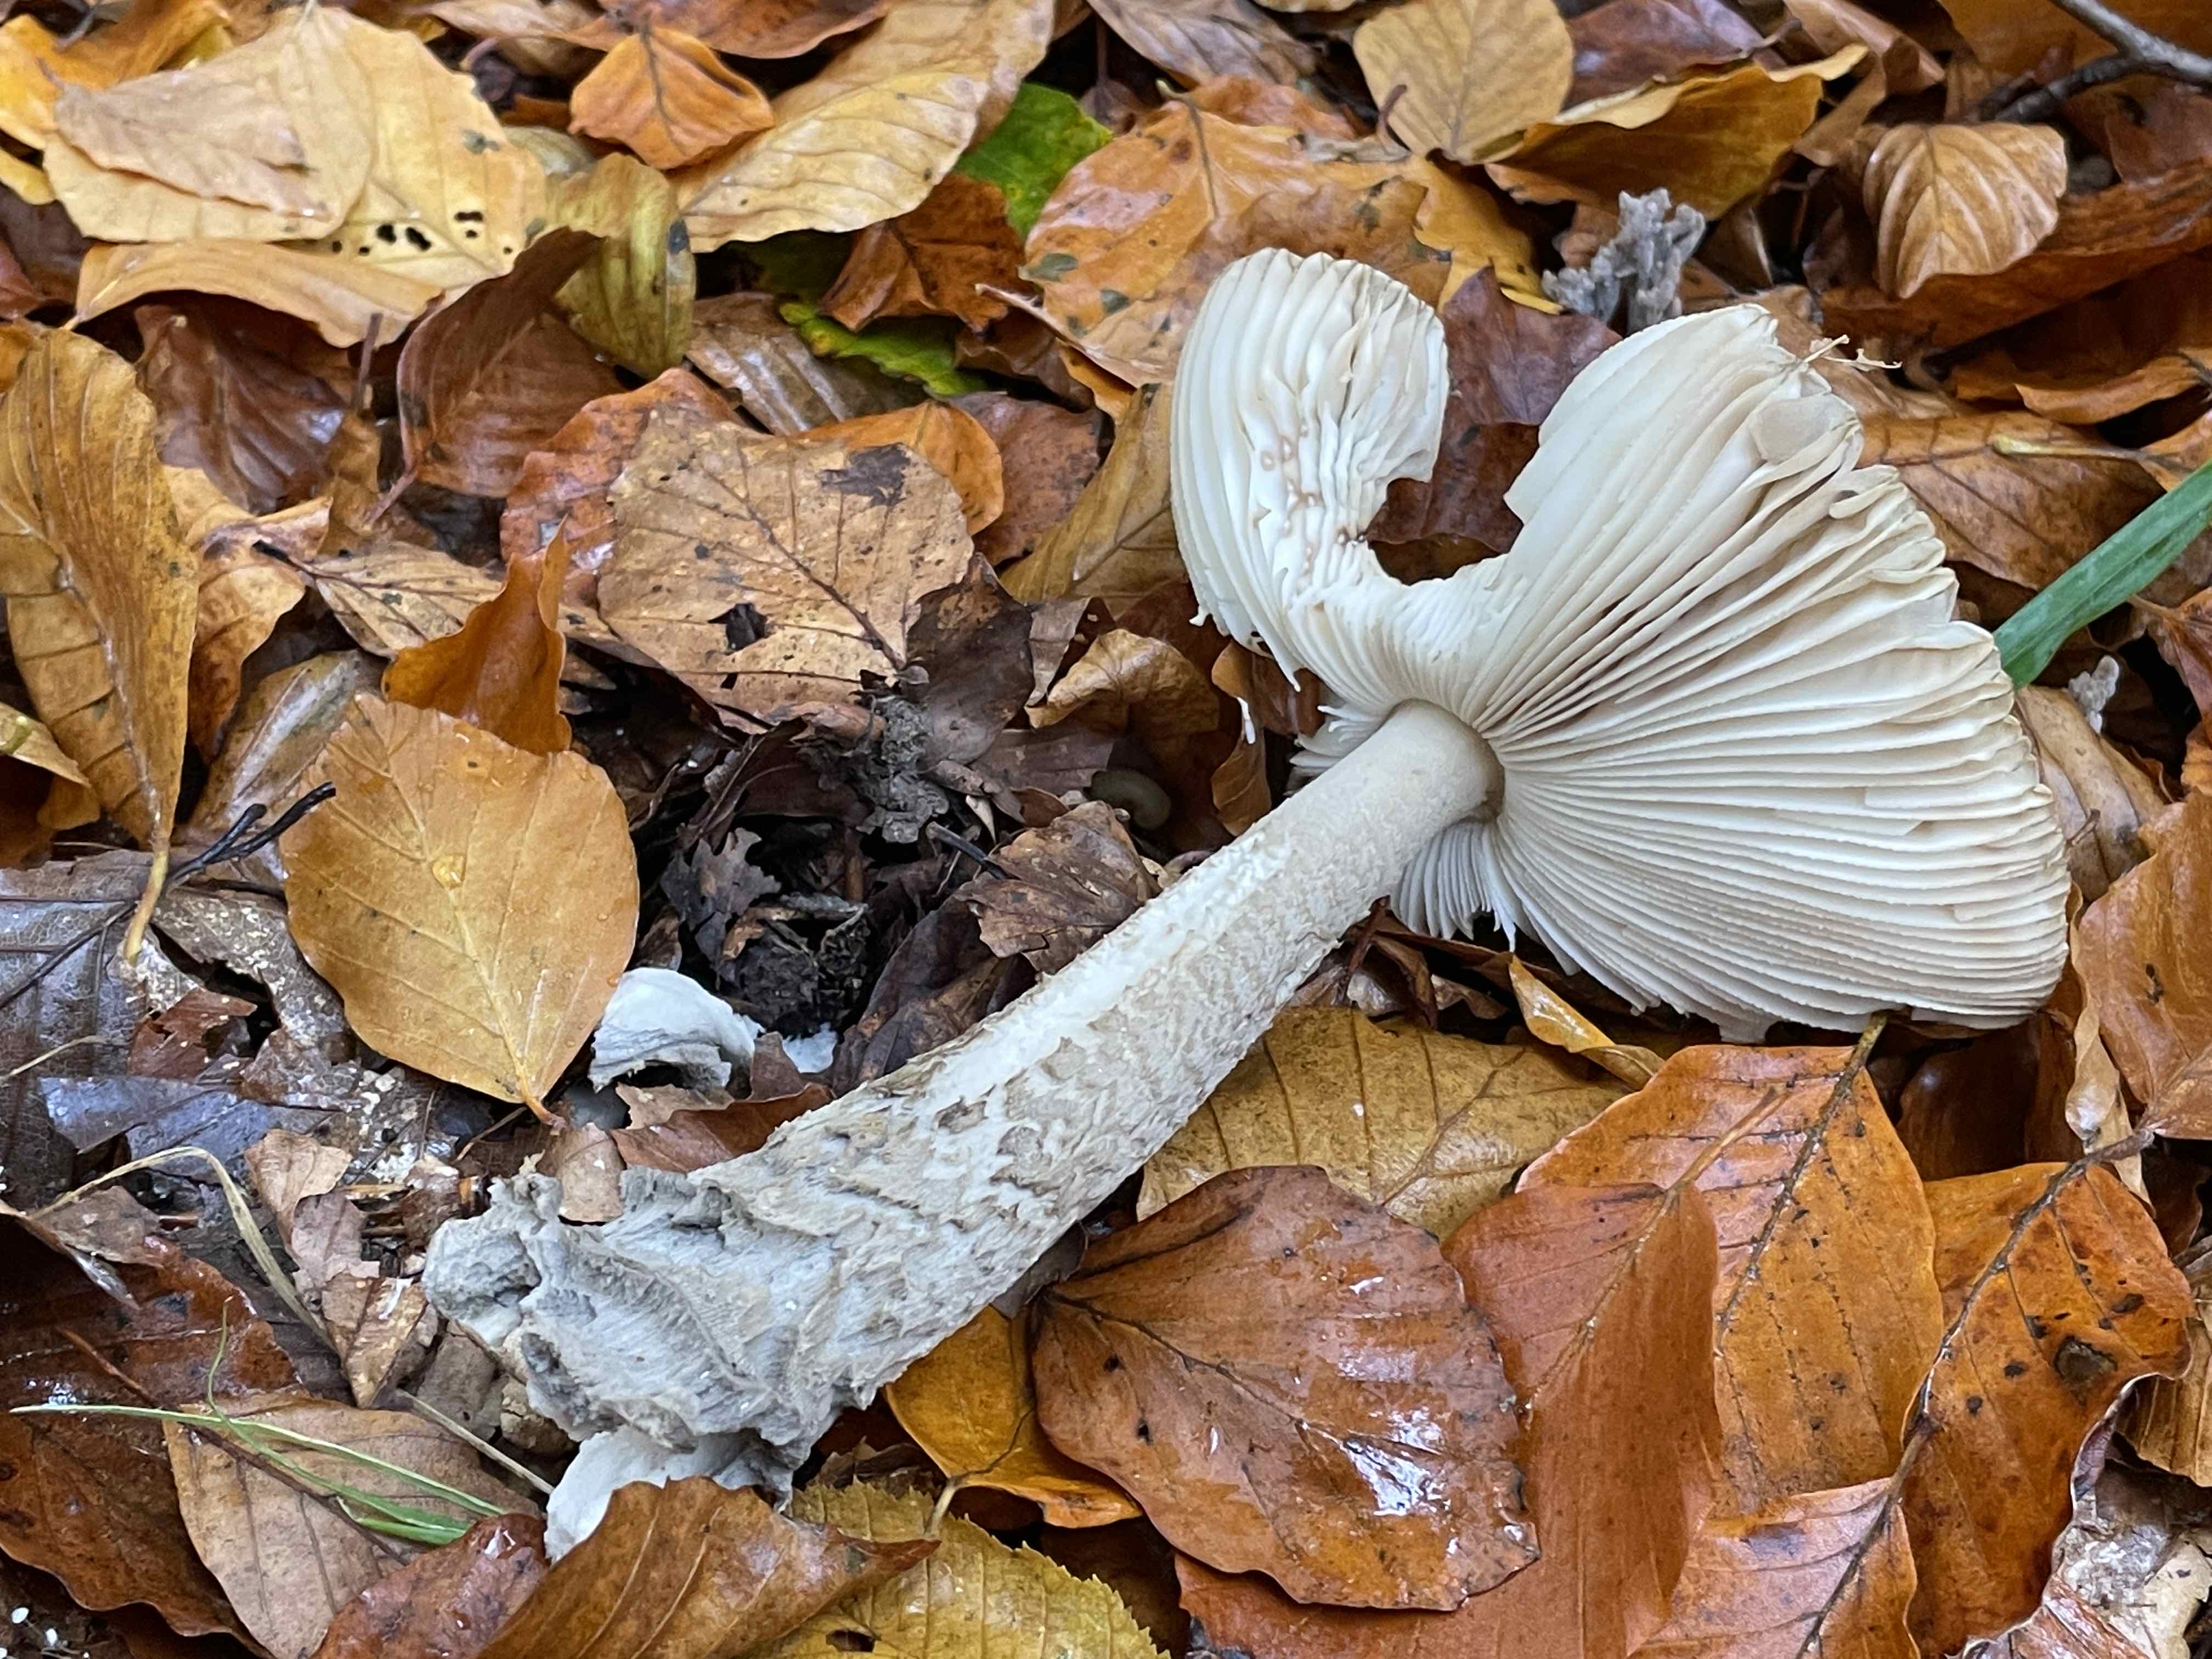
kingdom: Fungi
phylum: Basidiomycota
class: Agaricomycetes
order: Agaricales
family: Amanitaceae
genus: Amanita
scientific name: Amanita ceciliae
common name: stor kam-fluesvamp
